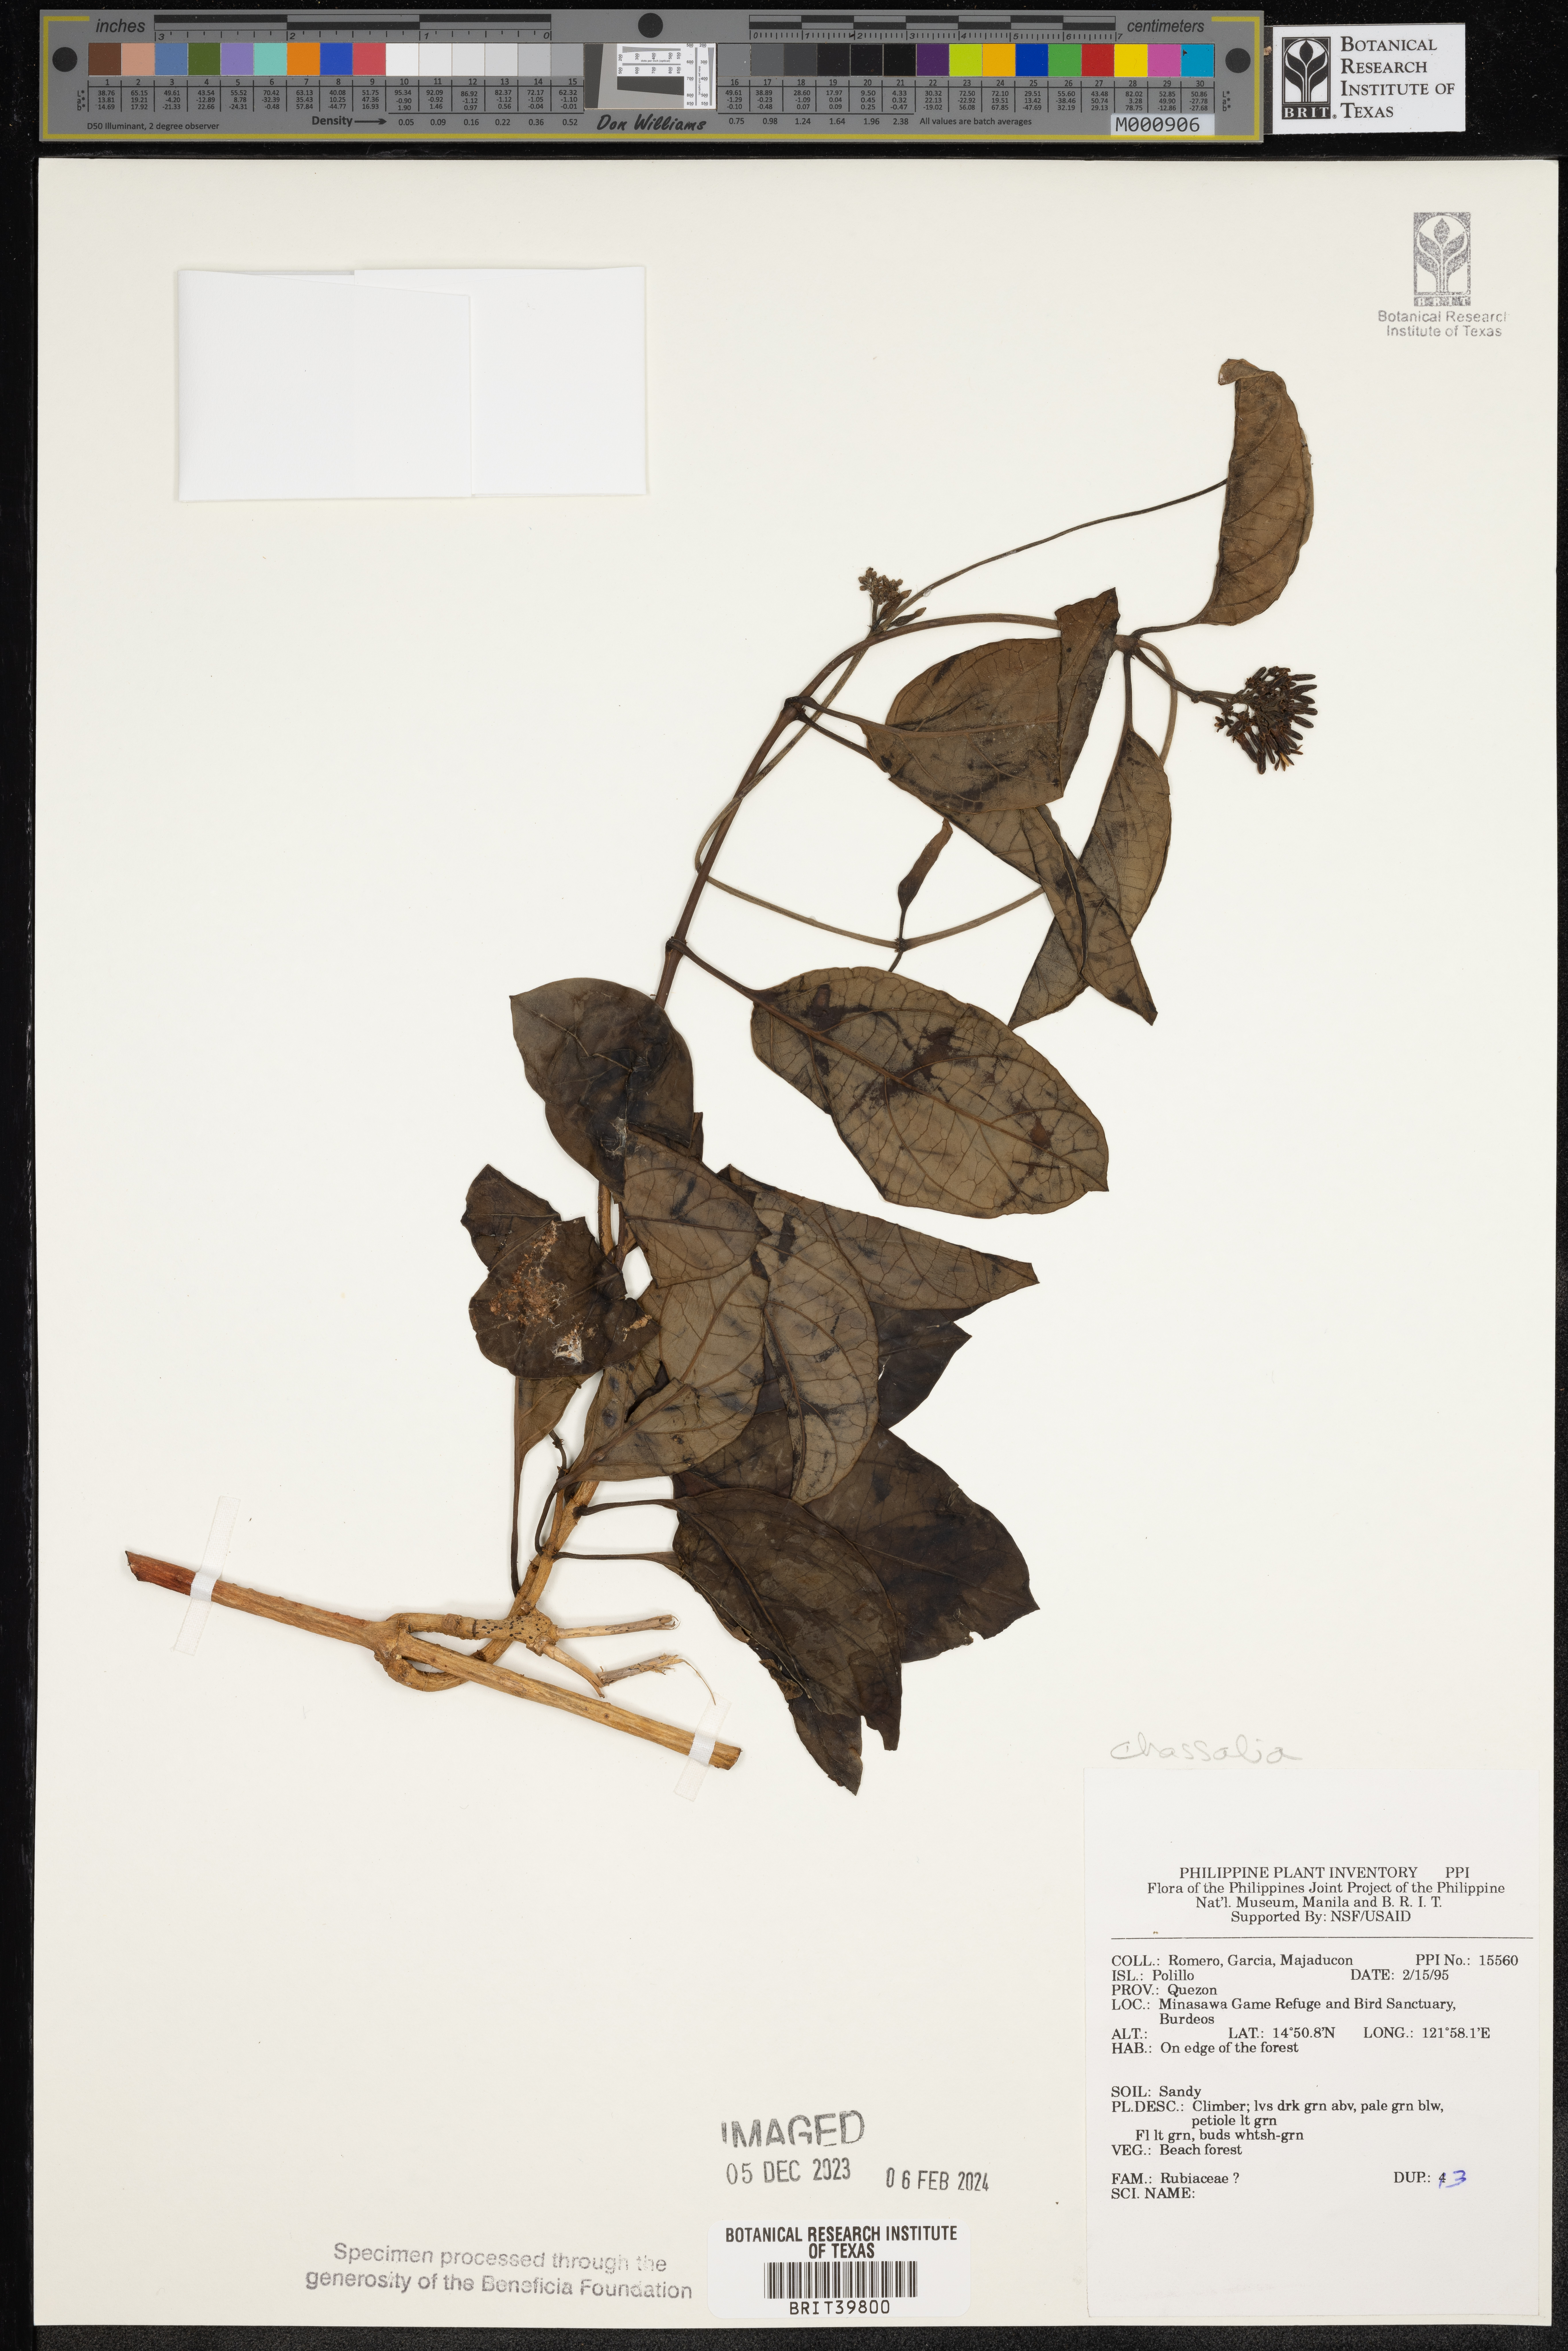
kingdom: Plantae
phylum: Tracheophyta
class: Magnoliopsida
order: Gentianales
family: Rubiaceae
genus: Chassalia
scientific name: Chassalia
